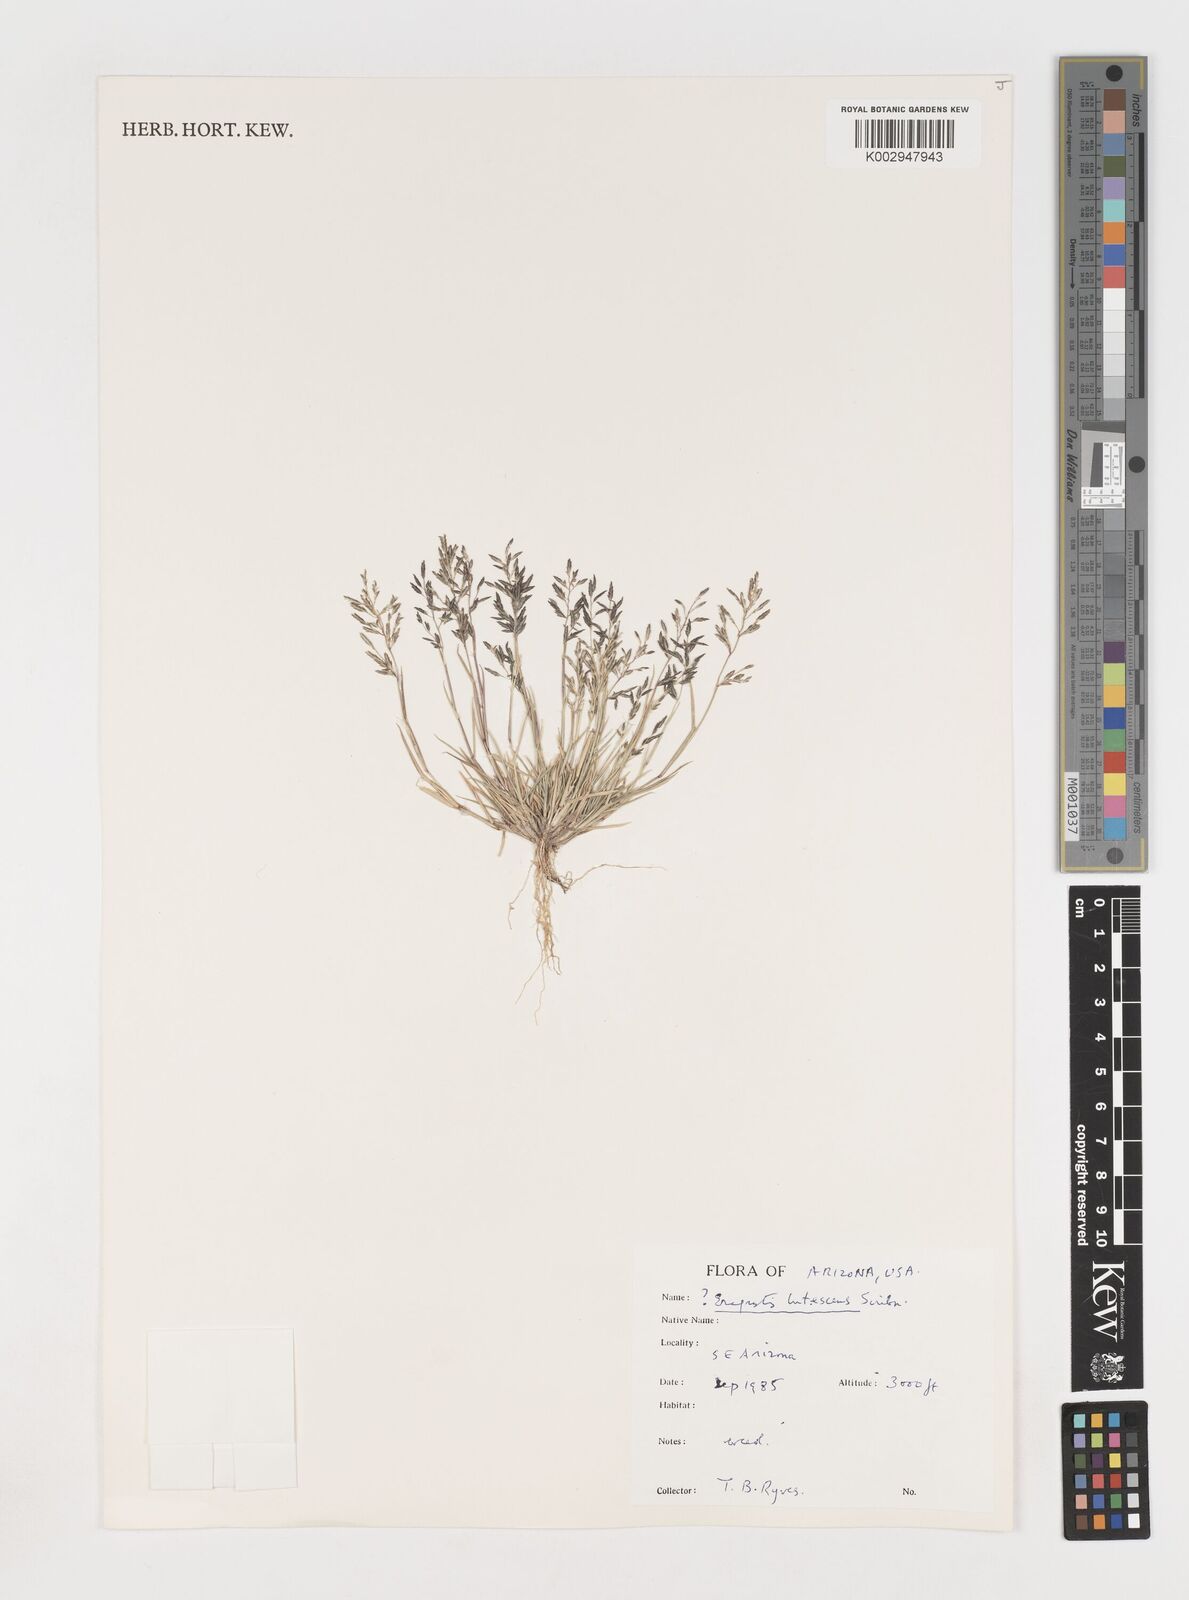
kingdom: Plantae
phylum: Tracheophyta
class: Liliopsida
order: Poales
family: Poaceae
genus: Eragrostis
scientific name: Eragrostis barrelieri
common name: Mediterranean lovegrass
